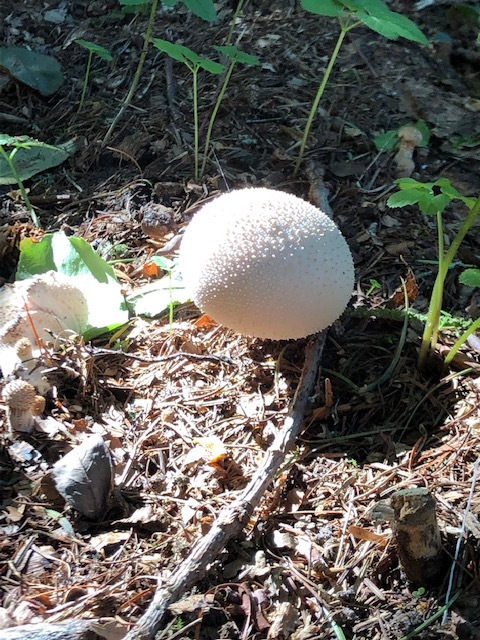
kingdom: Fungi
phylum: Basidiomycota
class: Agaricomycetes
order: Agaricales
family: Lycoperdaceae
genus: Lycoperdon
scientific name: Lycoperdon perlatum
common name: krystal-støvbold
